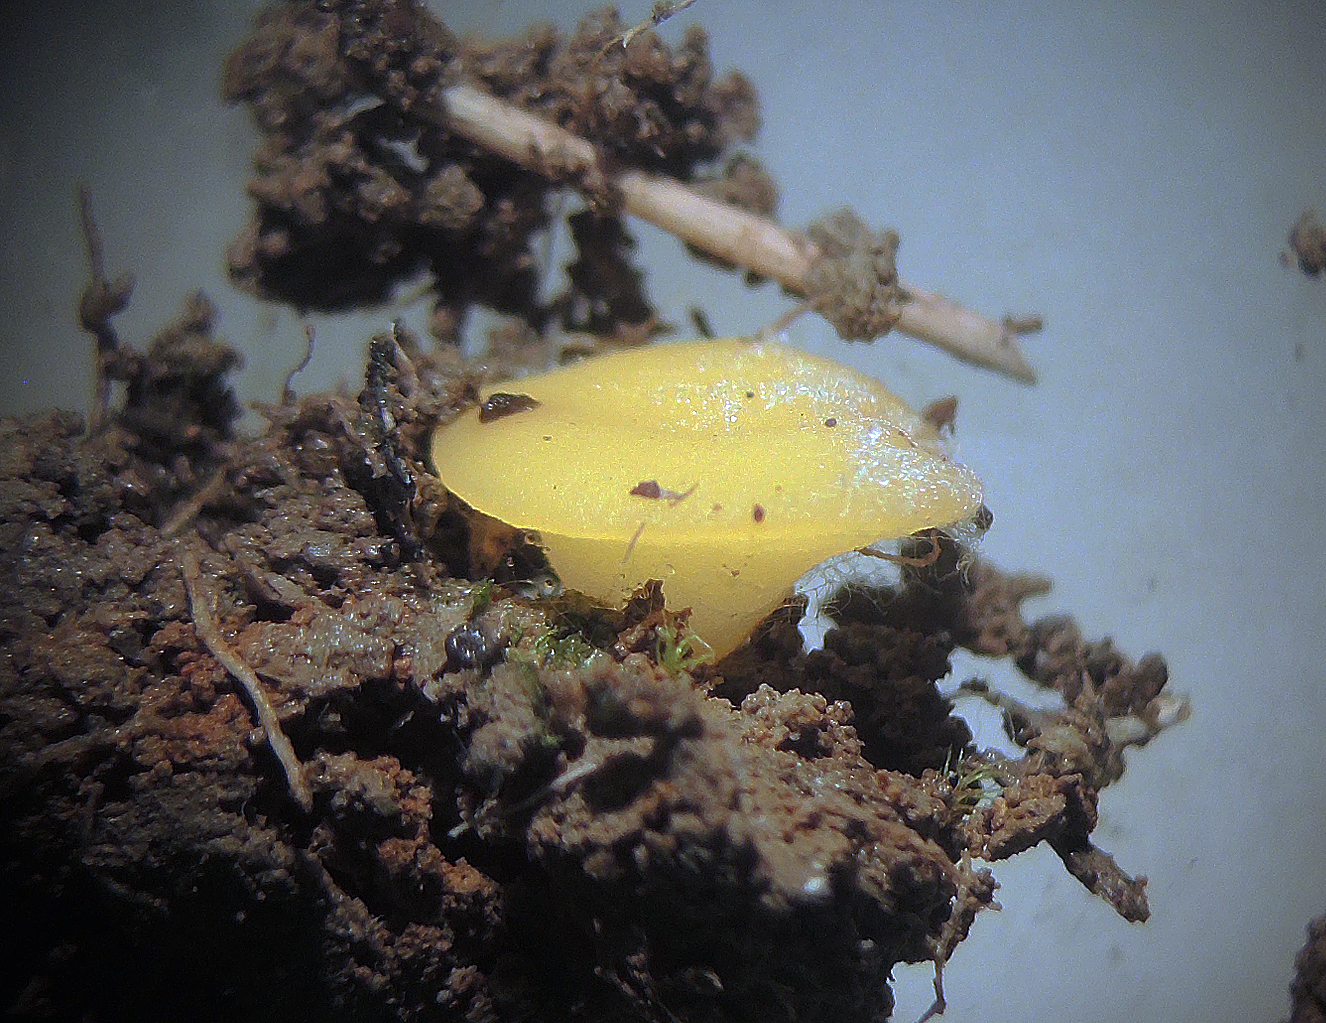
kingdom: Fungi
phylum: Ascomycota
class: Leotiomycetes
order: Helotiales
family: Helotiaceae
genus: Hymenoscyphus
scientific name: Hymenoscyphus monticola
